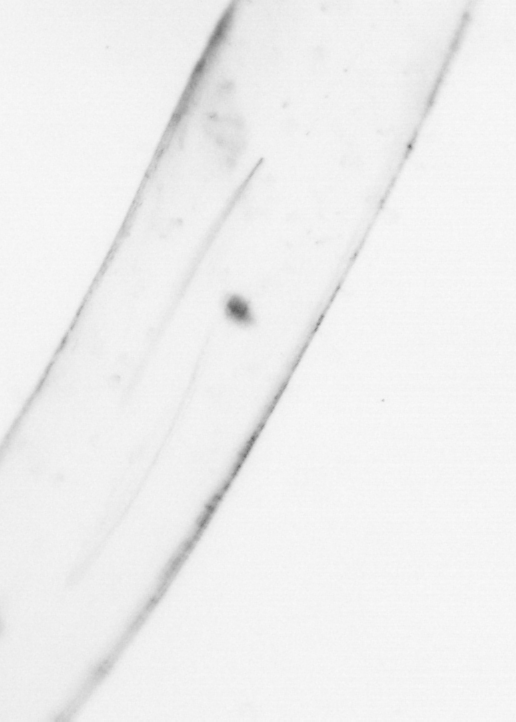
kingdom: Chromista
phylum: Ochrophyta
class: Bacillariophyceae
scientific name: Bacillariophyceae
